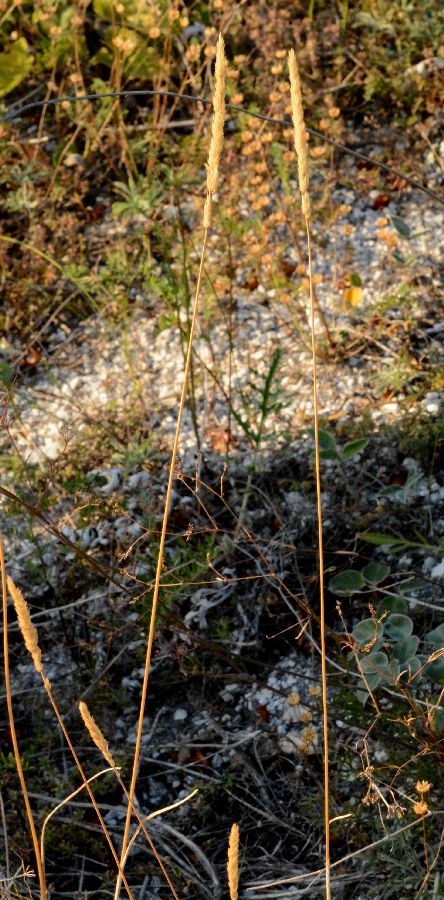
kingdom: Plantae
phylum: Tracheophyta
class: Liliopsida
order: Poales
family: Poaceae
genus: Koeleria
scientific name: Koeleria macrantha
